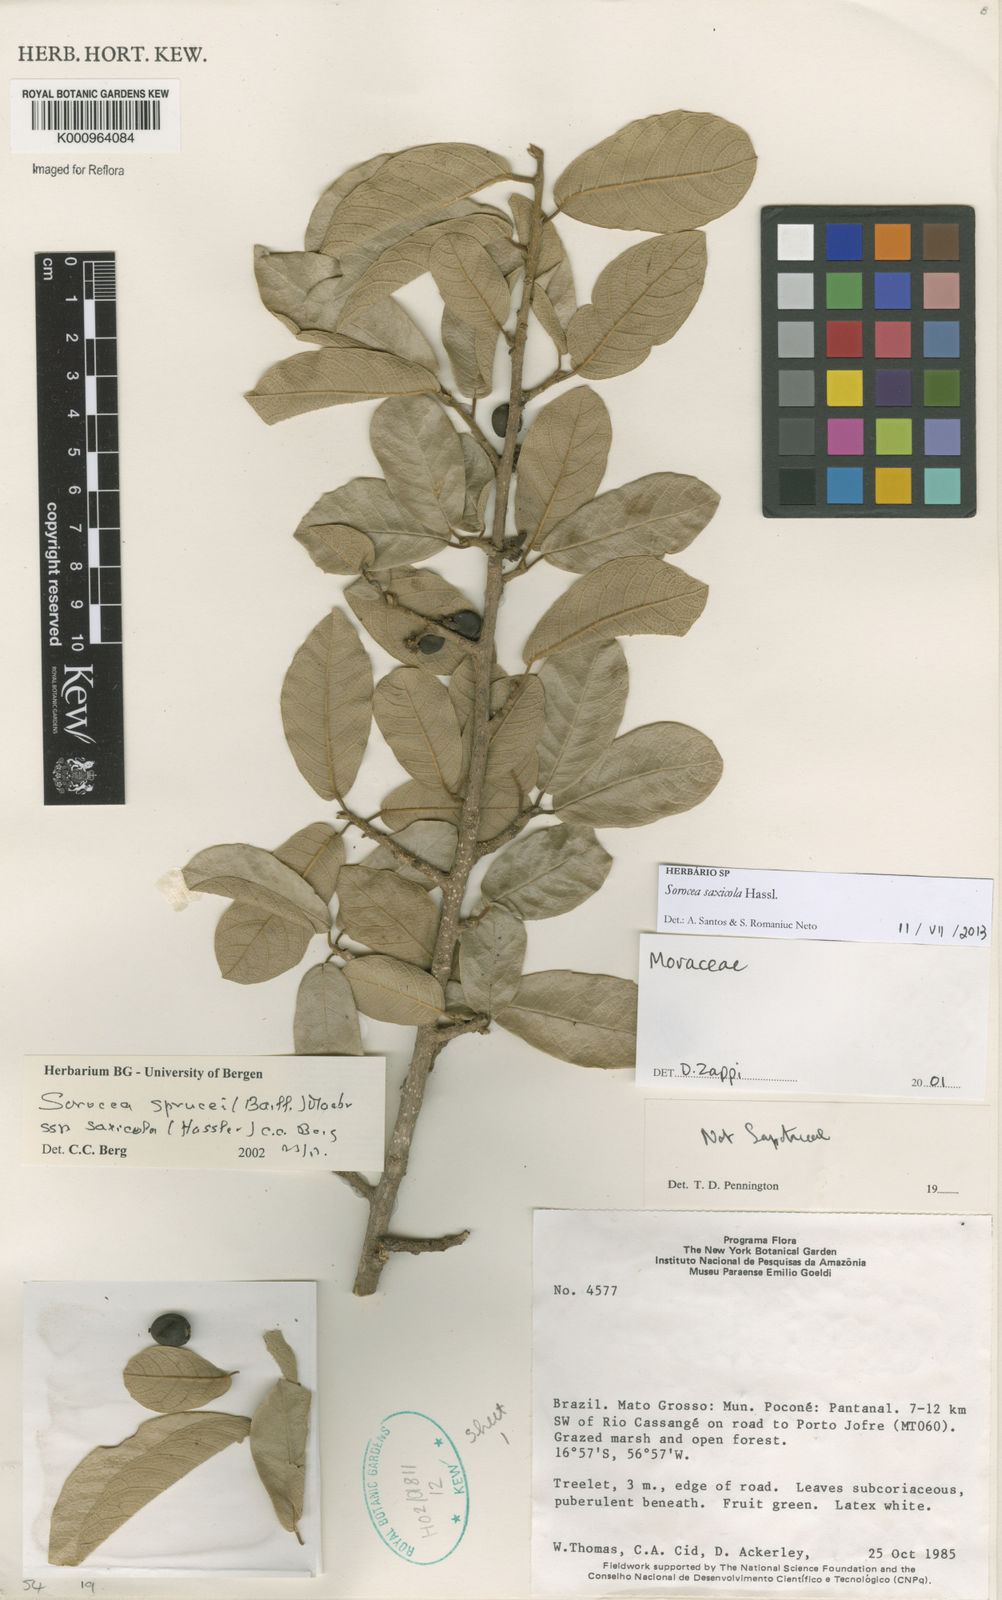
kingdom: Plantae
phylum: Tracheophyta
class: Magnoliopsida
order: Rosales
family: Moraceae
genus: Sorocea
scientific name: Sorocea sprucei
